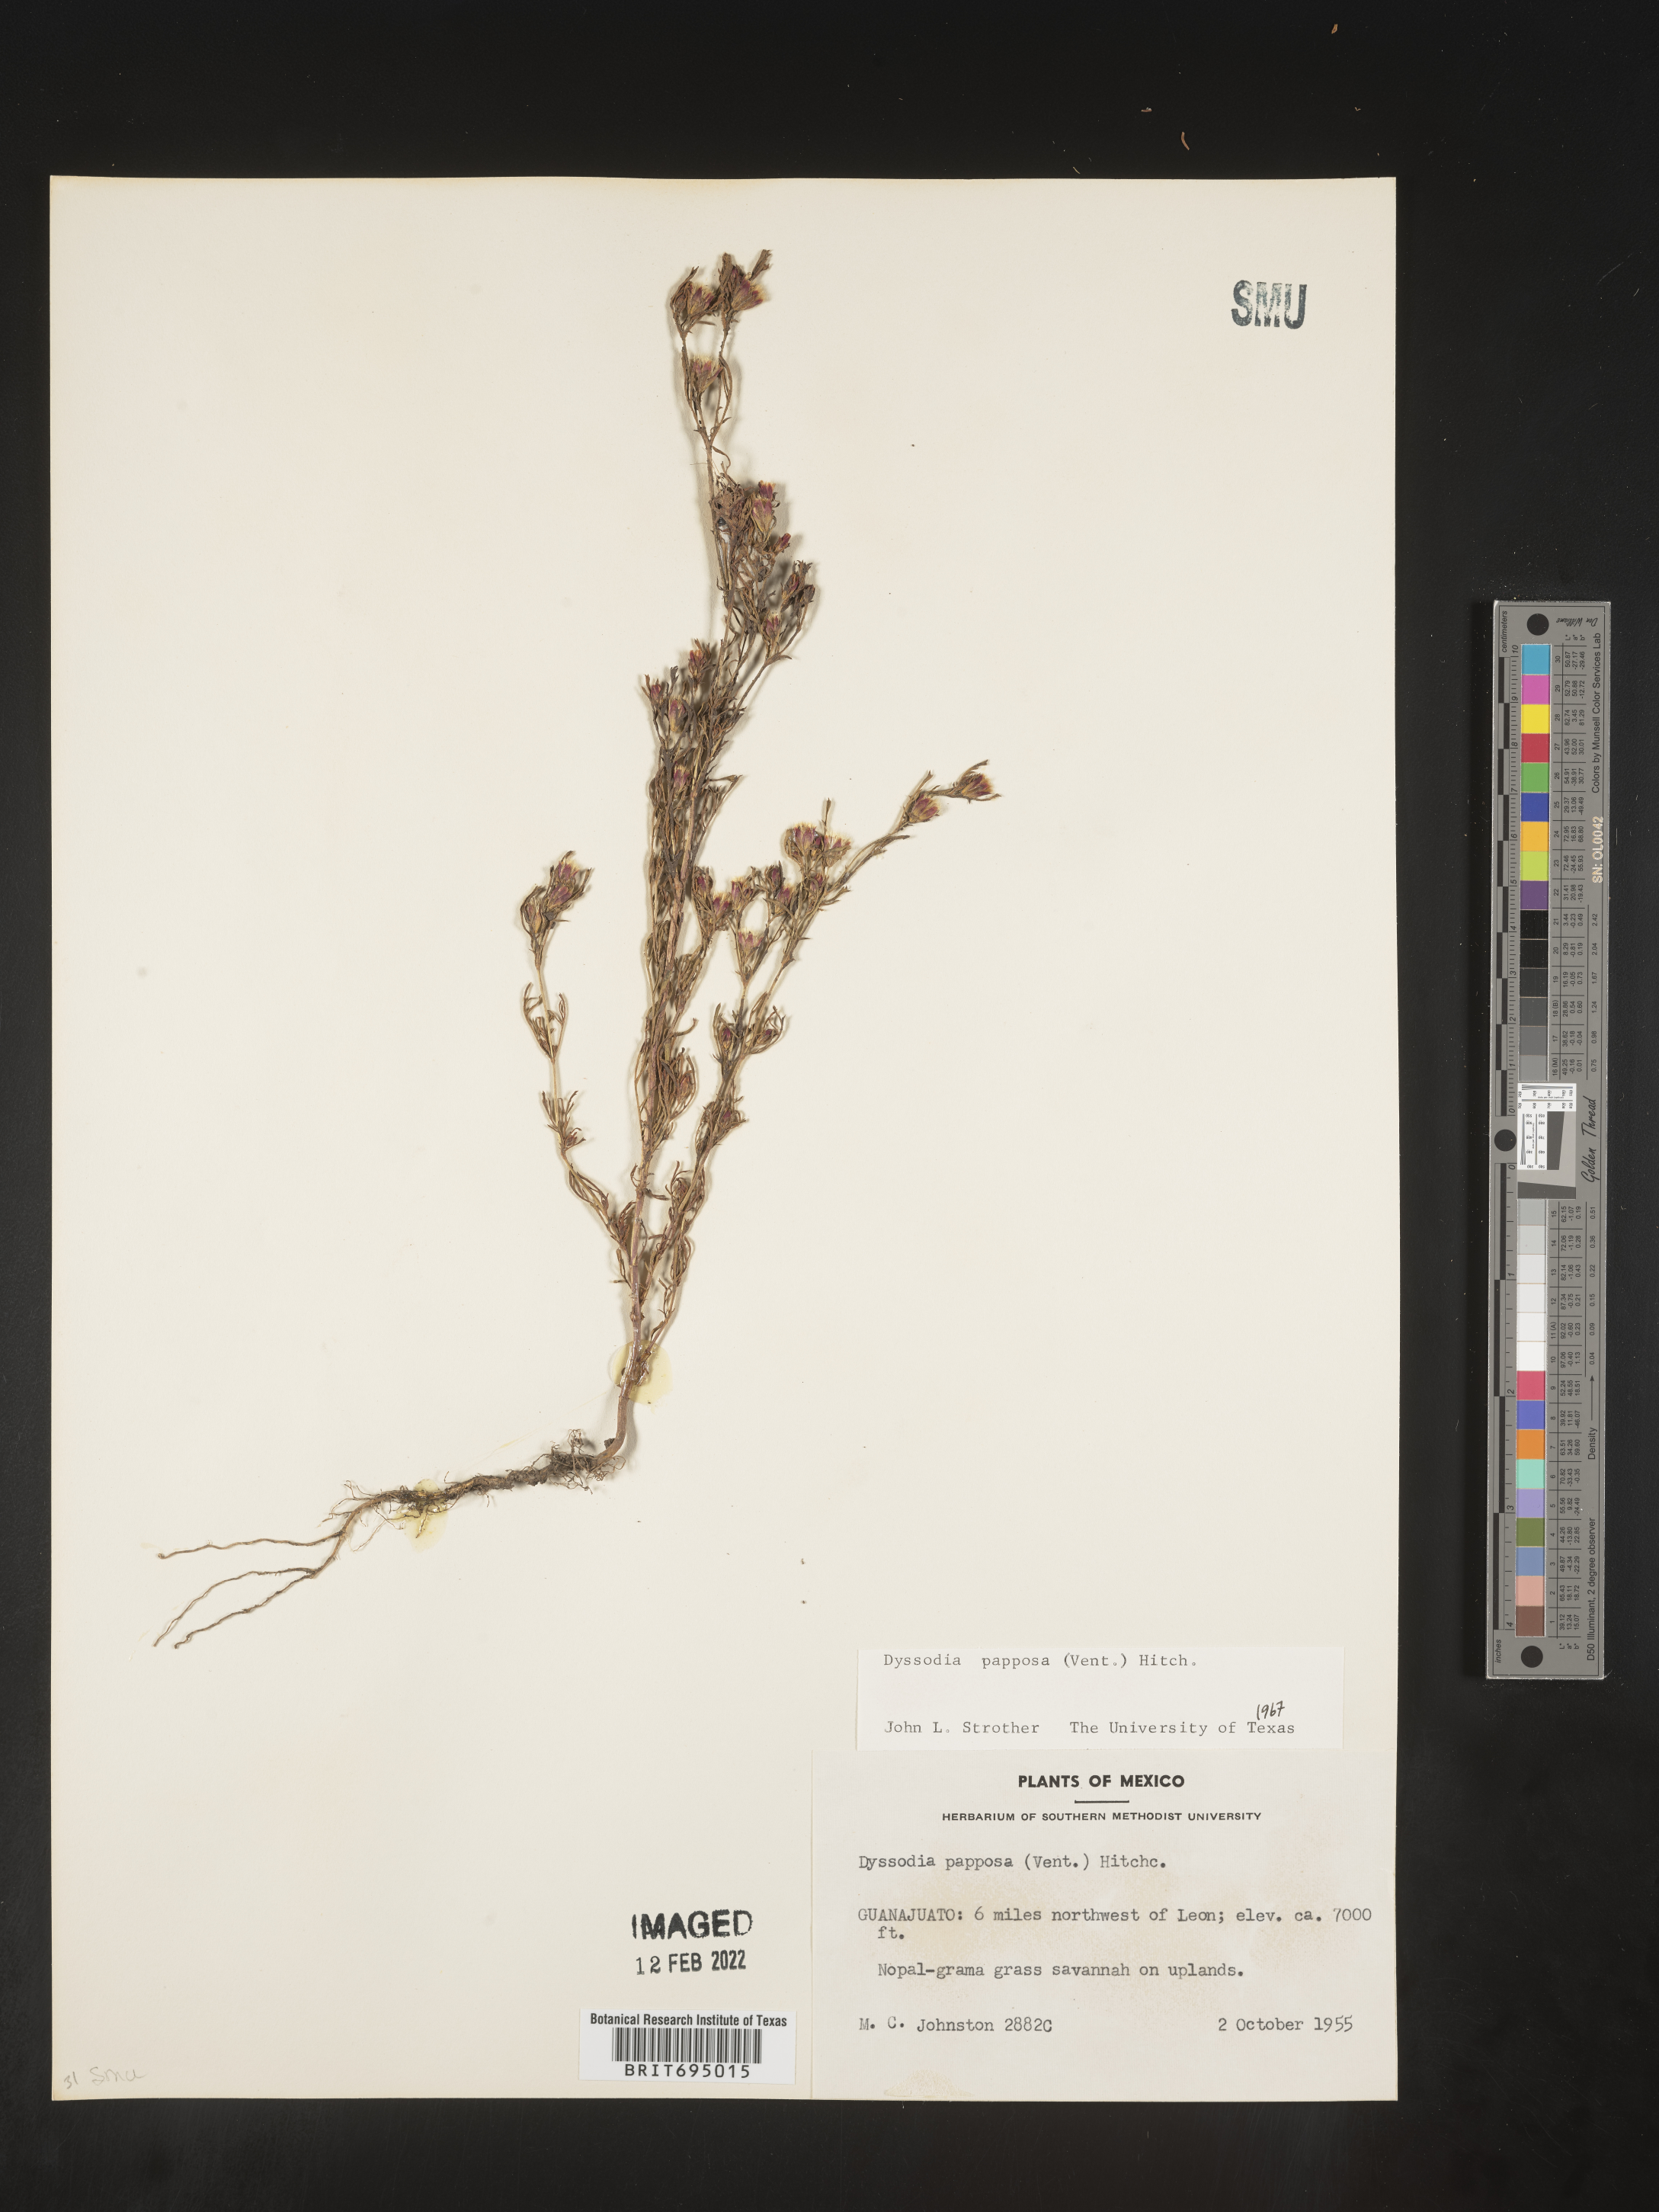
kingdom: Plantae
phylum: Tracheophyta
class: Magnoliopsida
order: Asterales
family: Asteraceae
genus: Dyssodia
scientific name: Dyssodia papposa
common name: Dogweed
